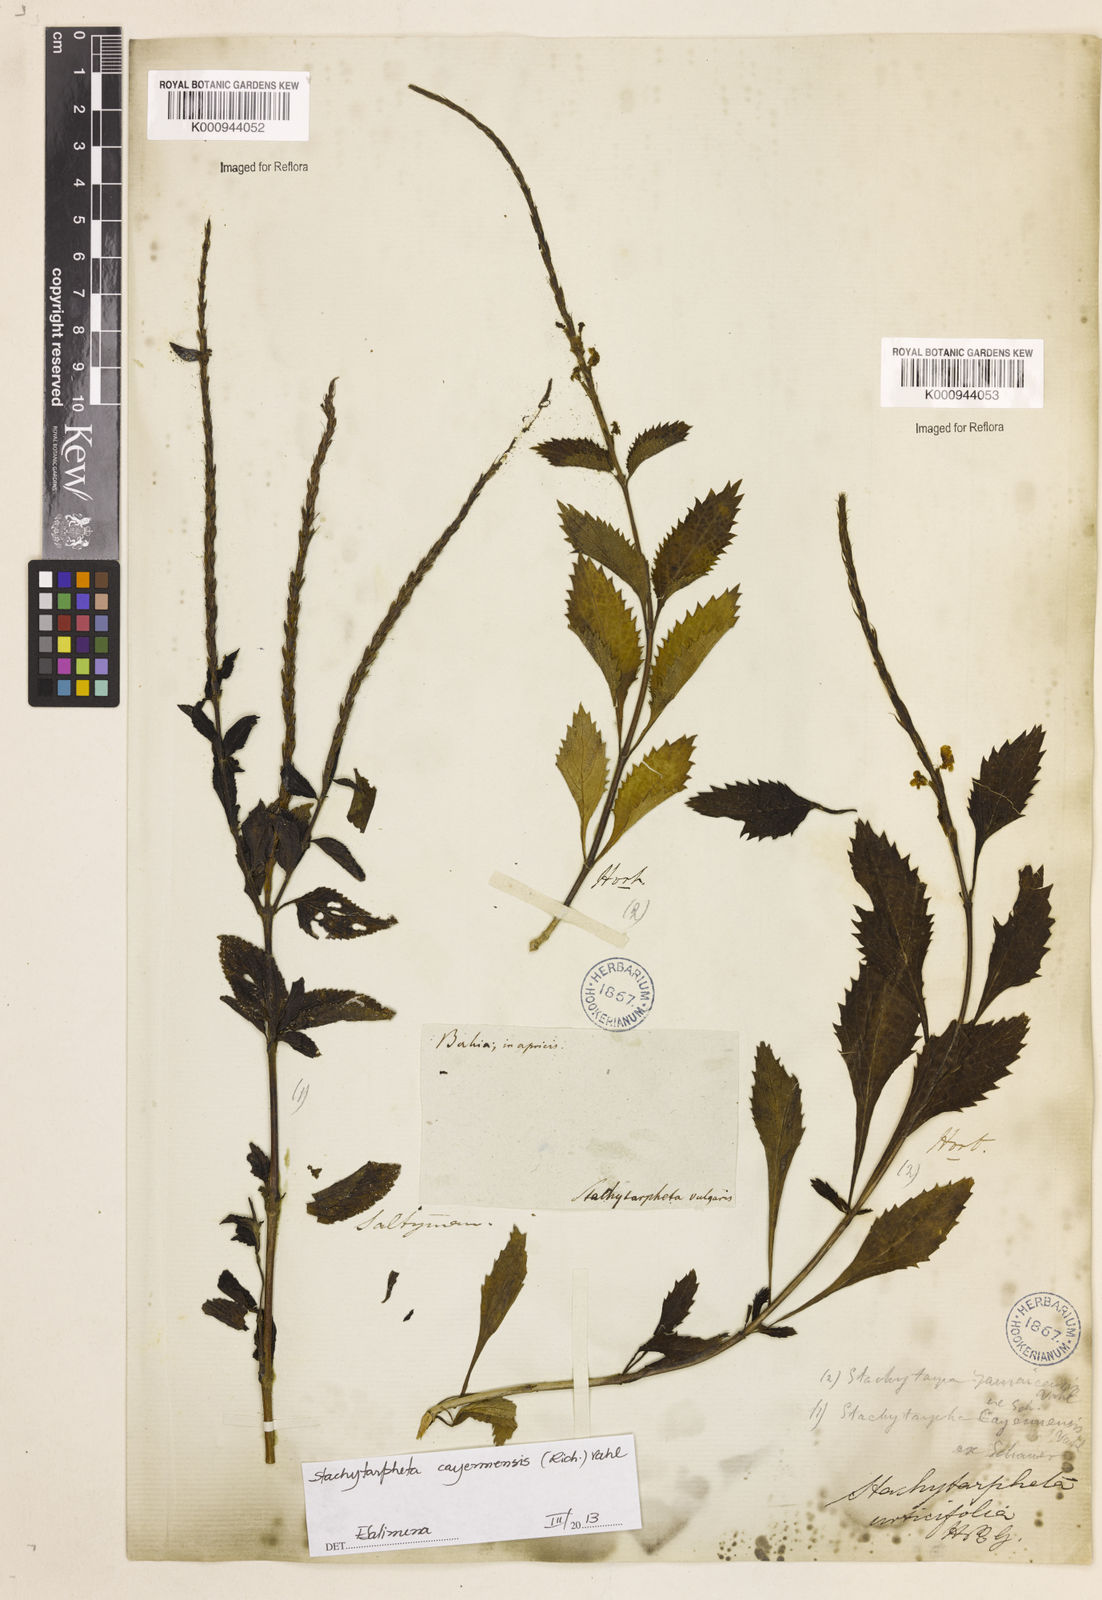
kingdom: Plantae
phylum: Tracheophyta
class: Magnoliopsida
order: Lamiales
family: Verbenaceae
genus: Aloysia
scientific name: Aloysia
